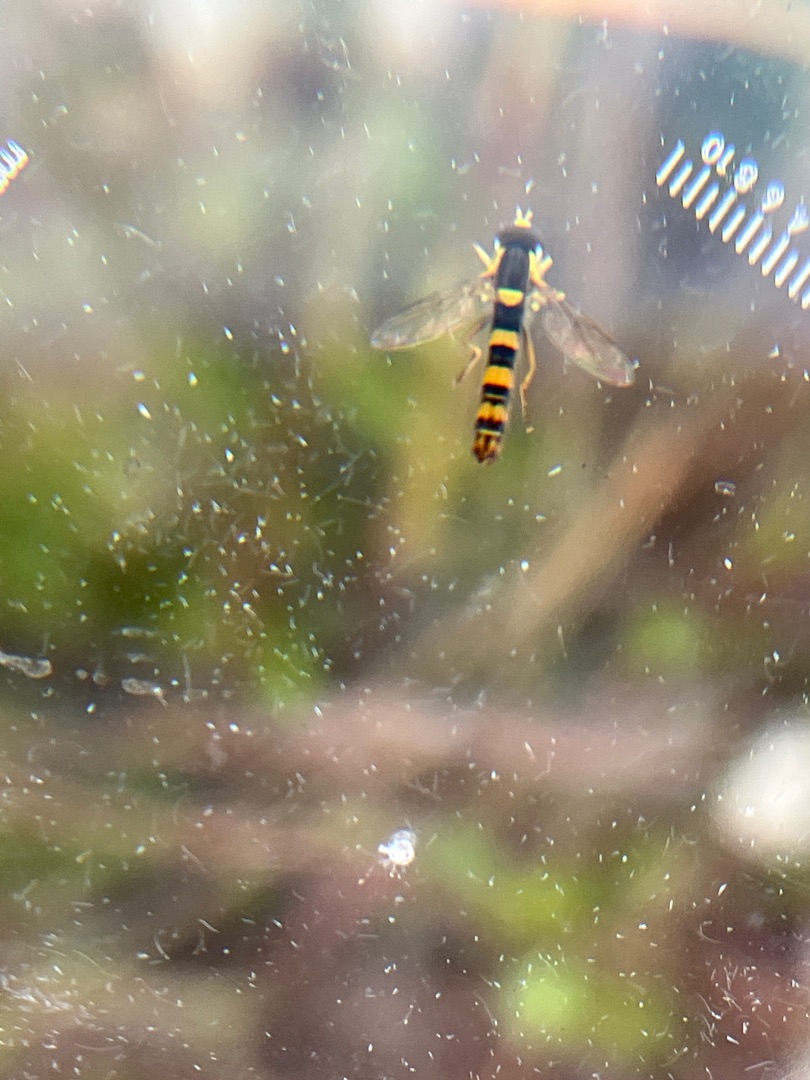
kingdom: Animalia
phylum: Arthropoda
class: Insecta
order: Diptera
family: Syrphidae
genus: Sphaerophoria
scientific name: Sphaerophoria scripta
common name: Almindelig kuglebærerflue
